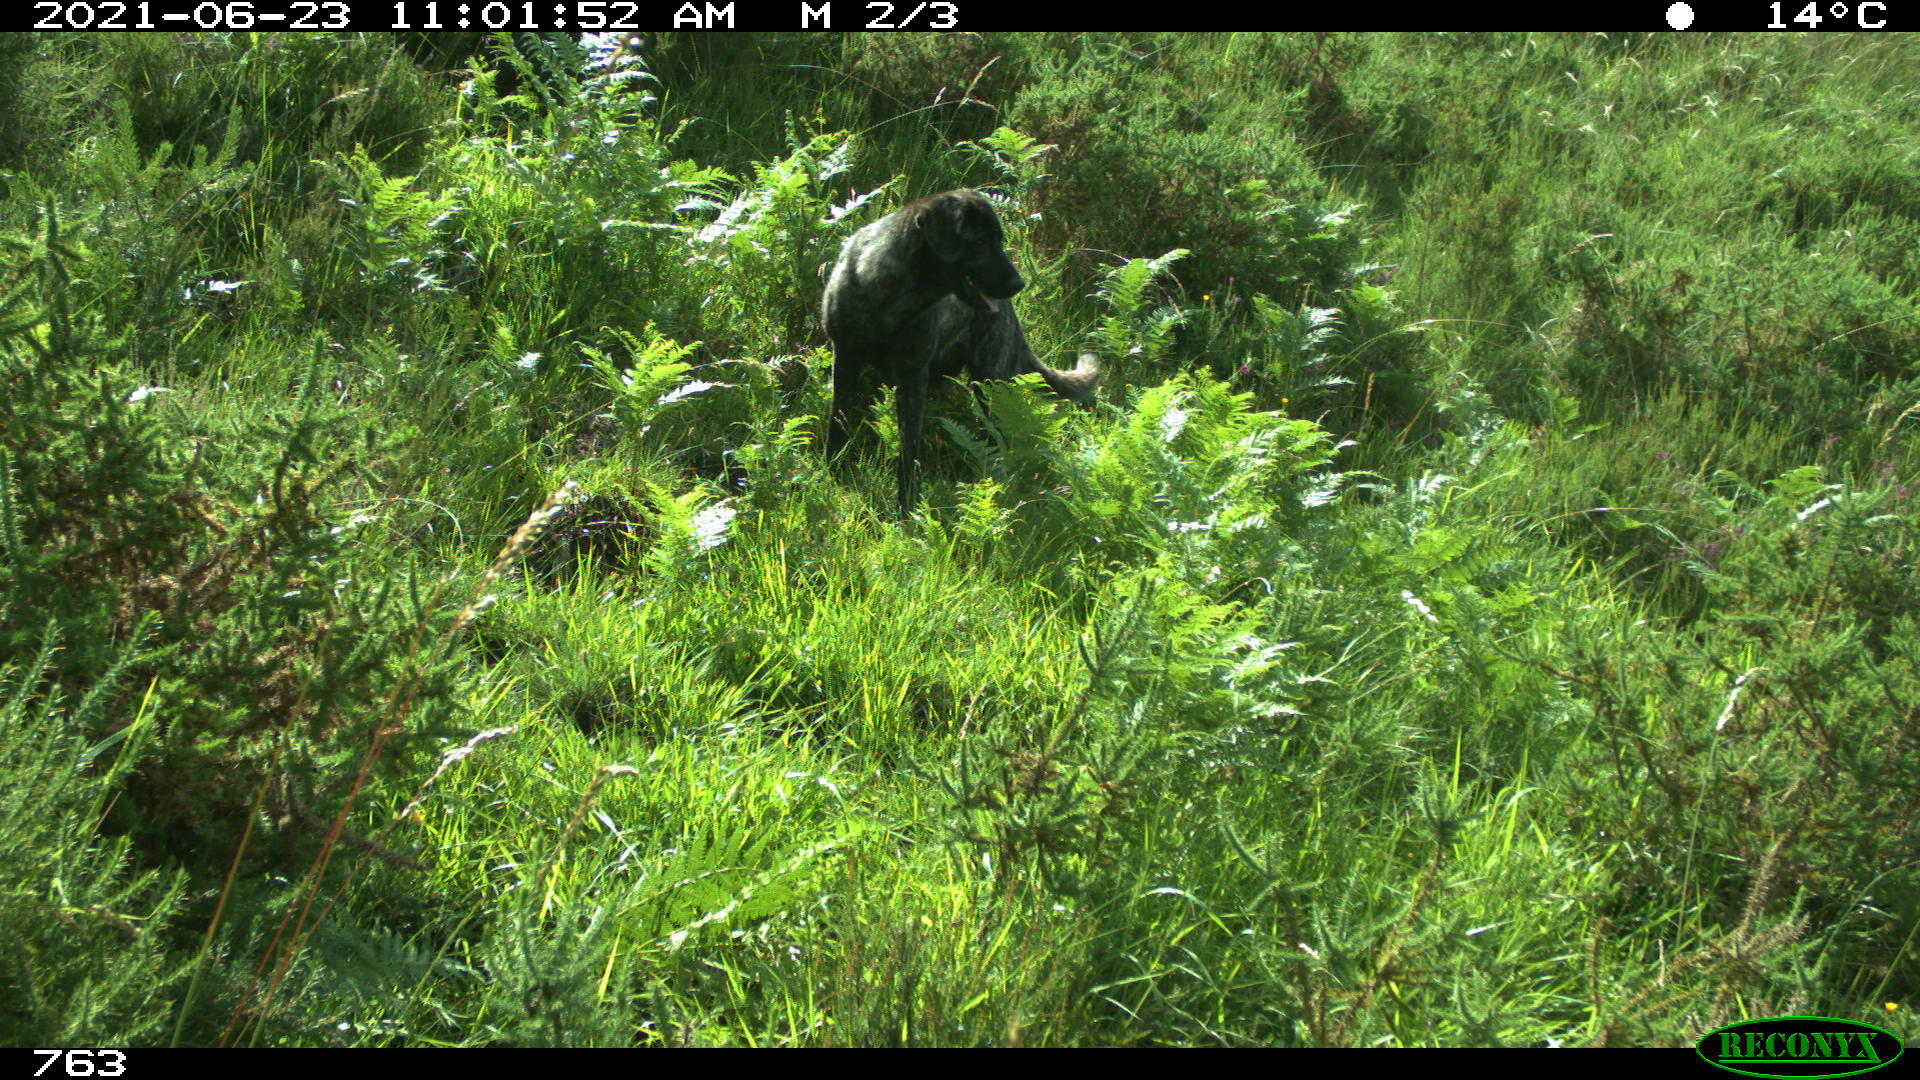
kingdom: Animalia
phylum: Chordata
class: Mammalia
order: Carnivora
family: Canidae
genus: Canis
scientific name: Canis lupus
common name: Gray wolf
